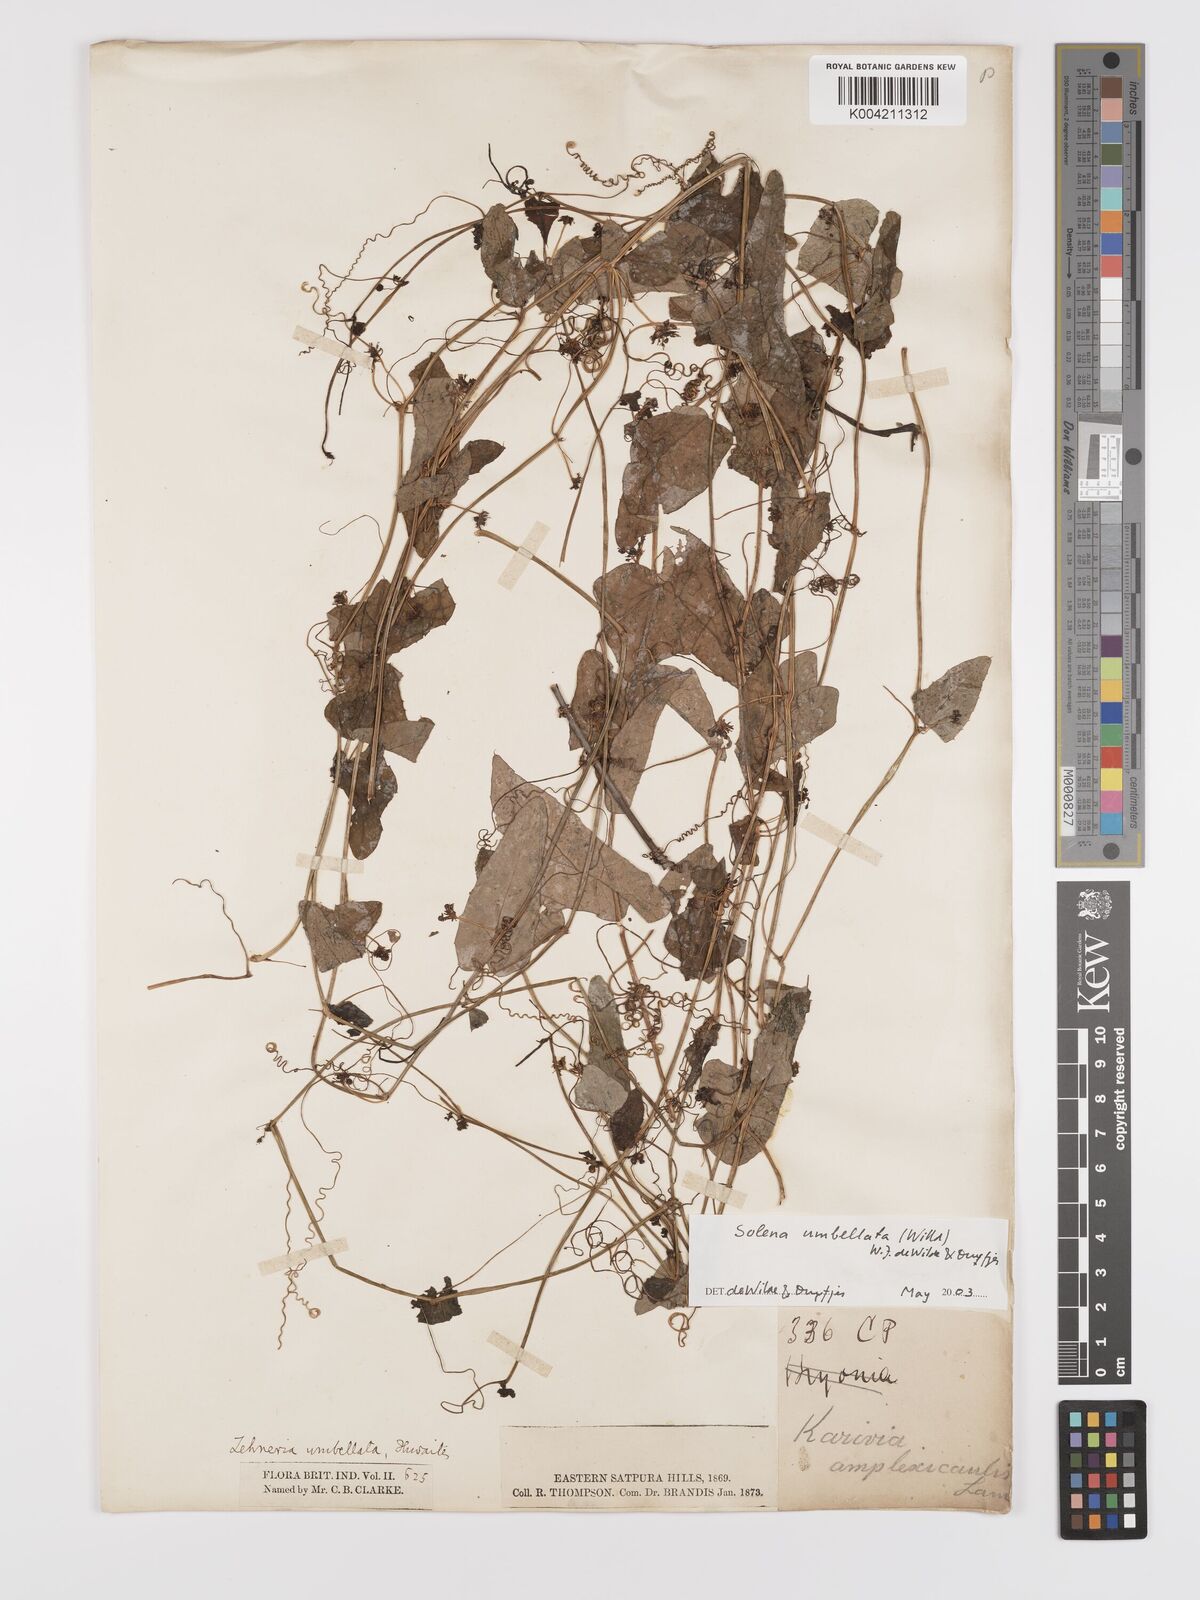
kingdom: Plantae
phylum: Tracheophyta
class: Magnoliopsida
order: Cucurbitales
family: Cucurbitaceae
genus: Solena
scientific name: Solena umbellata
